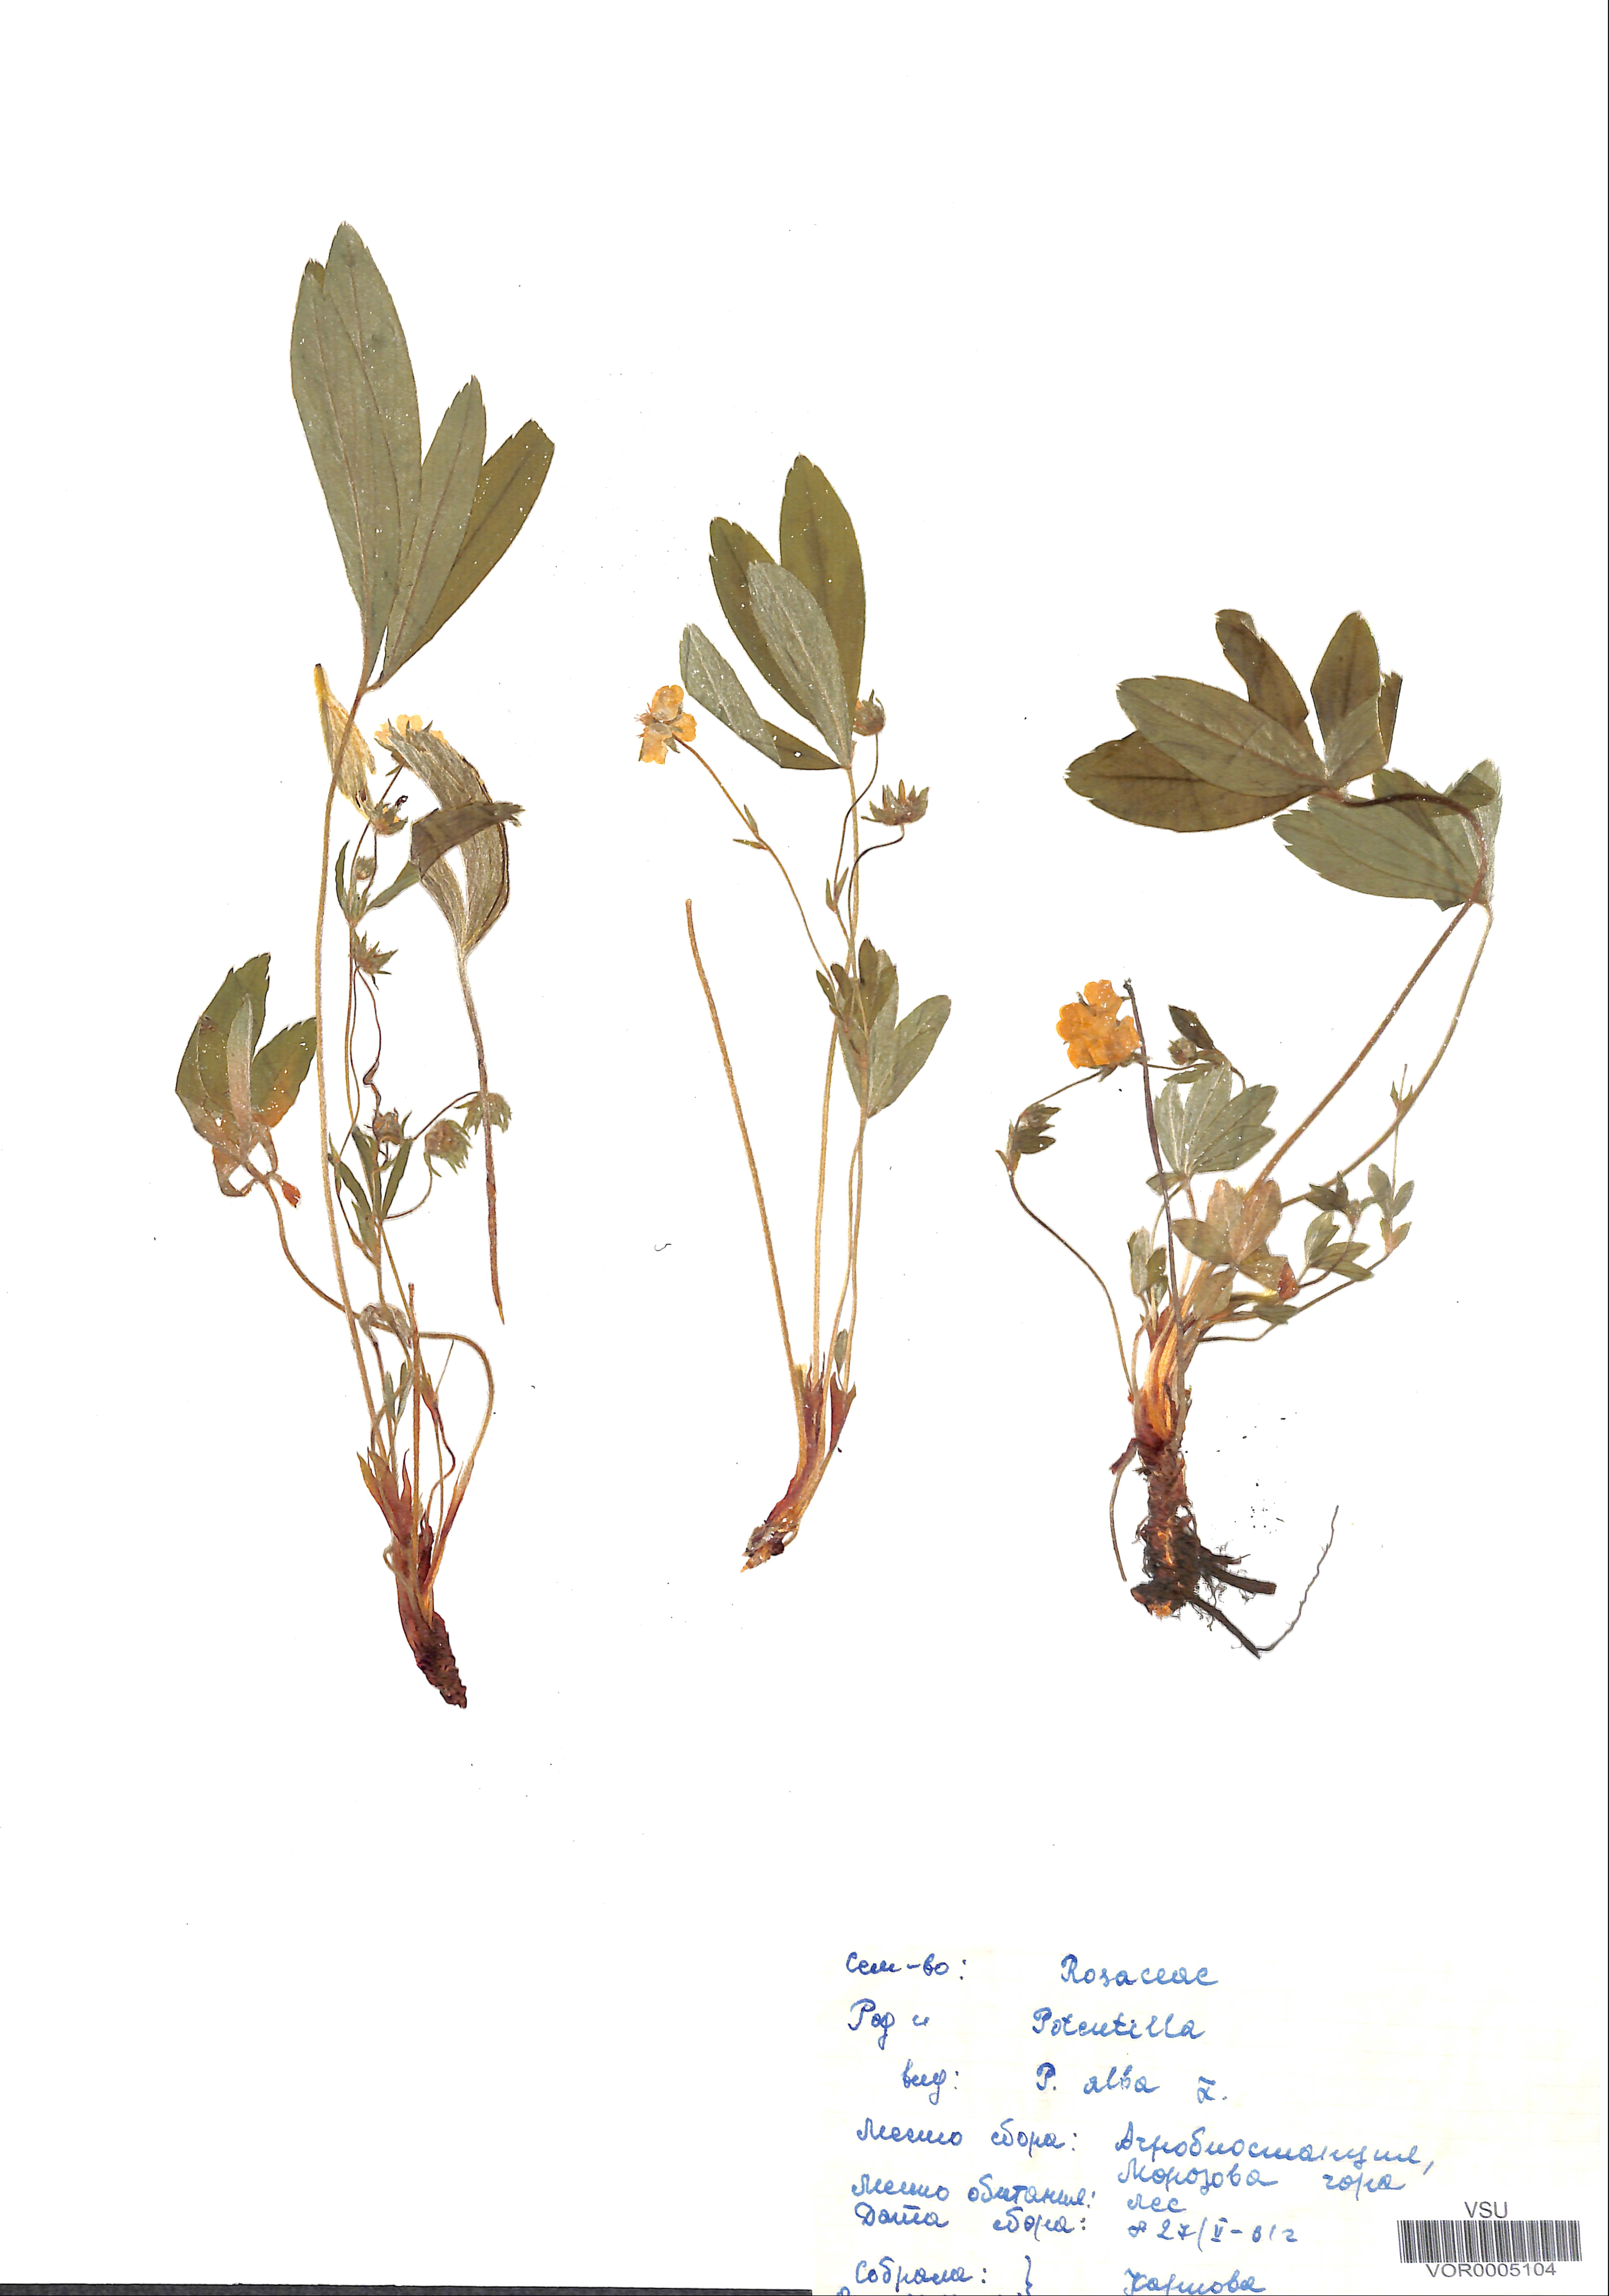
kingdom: Plantae
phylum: Tracheophyta
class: Magnoliopsida
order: Rosales
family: Rosaceae
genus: Potentilla
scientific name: Potentilla alba
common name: White cinquefoil
